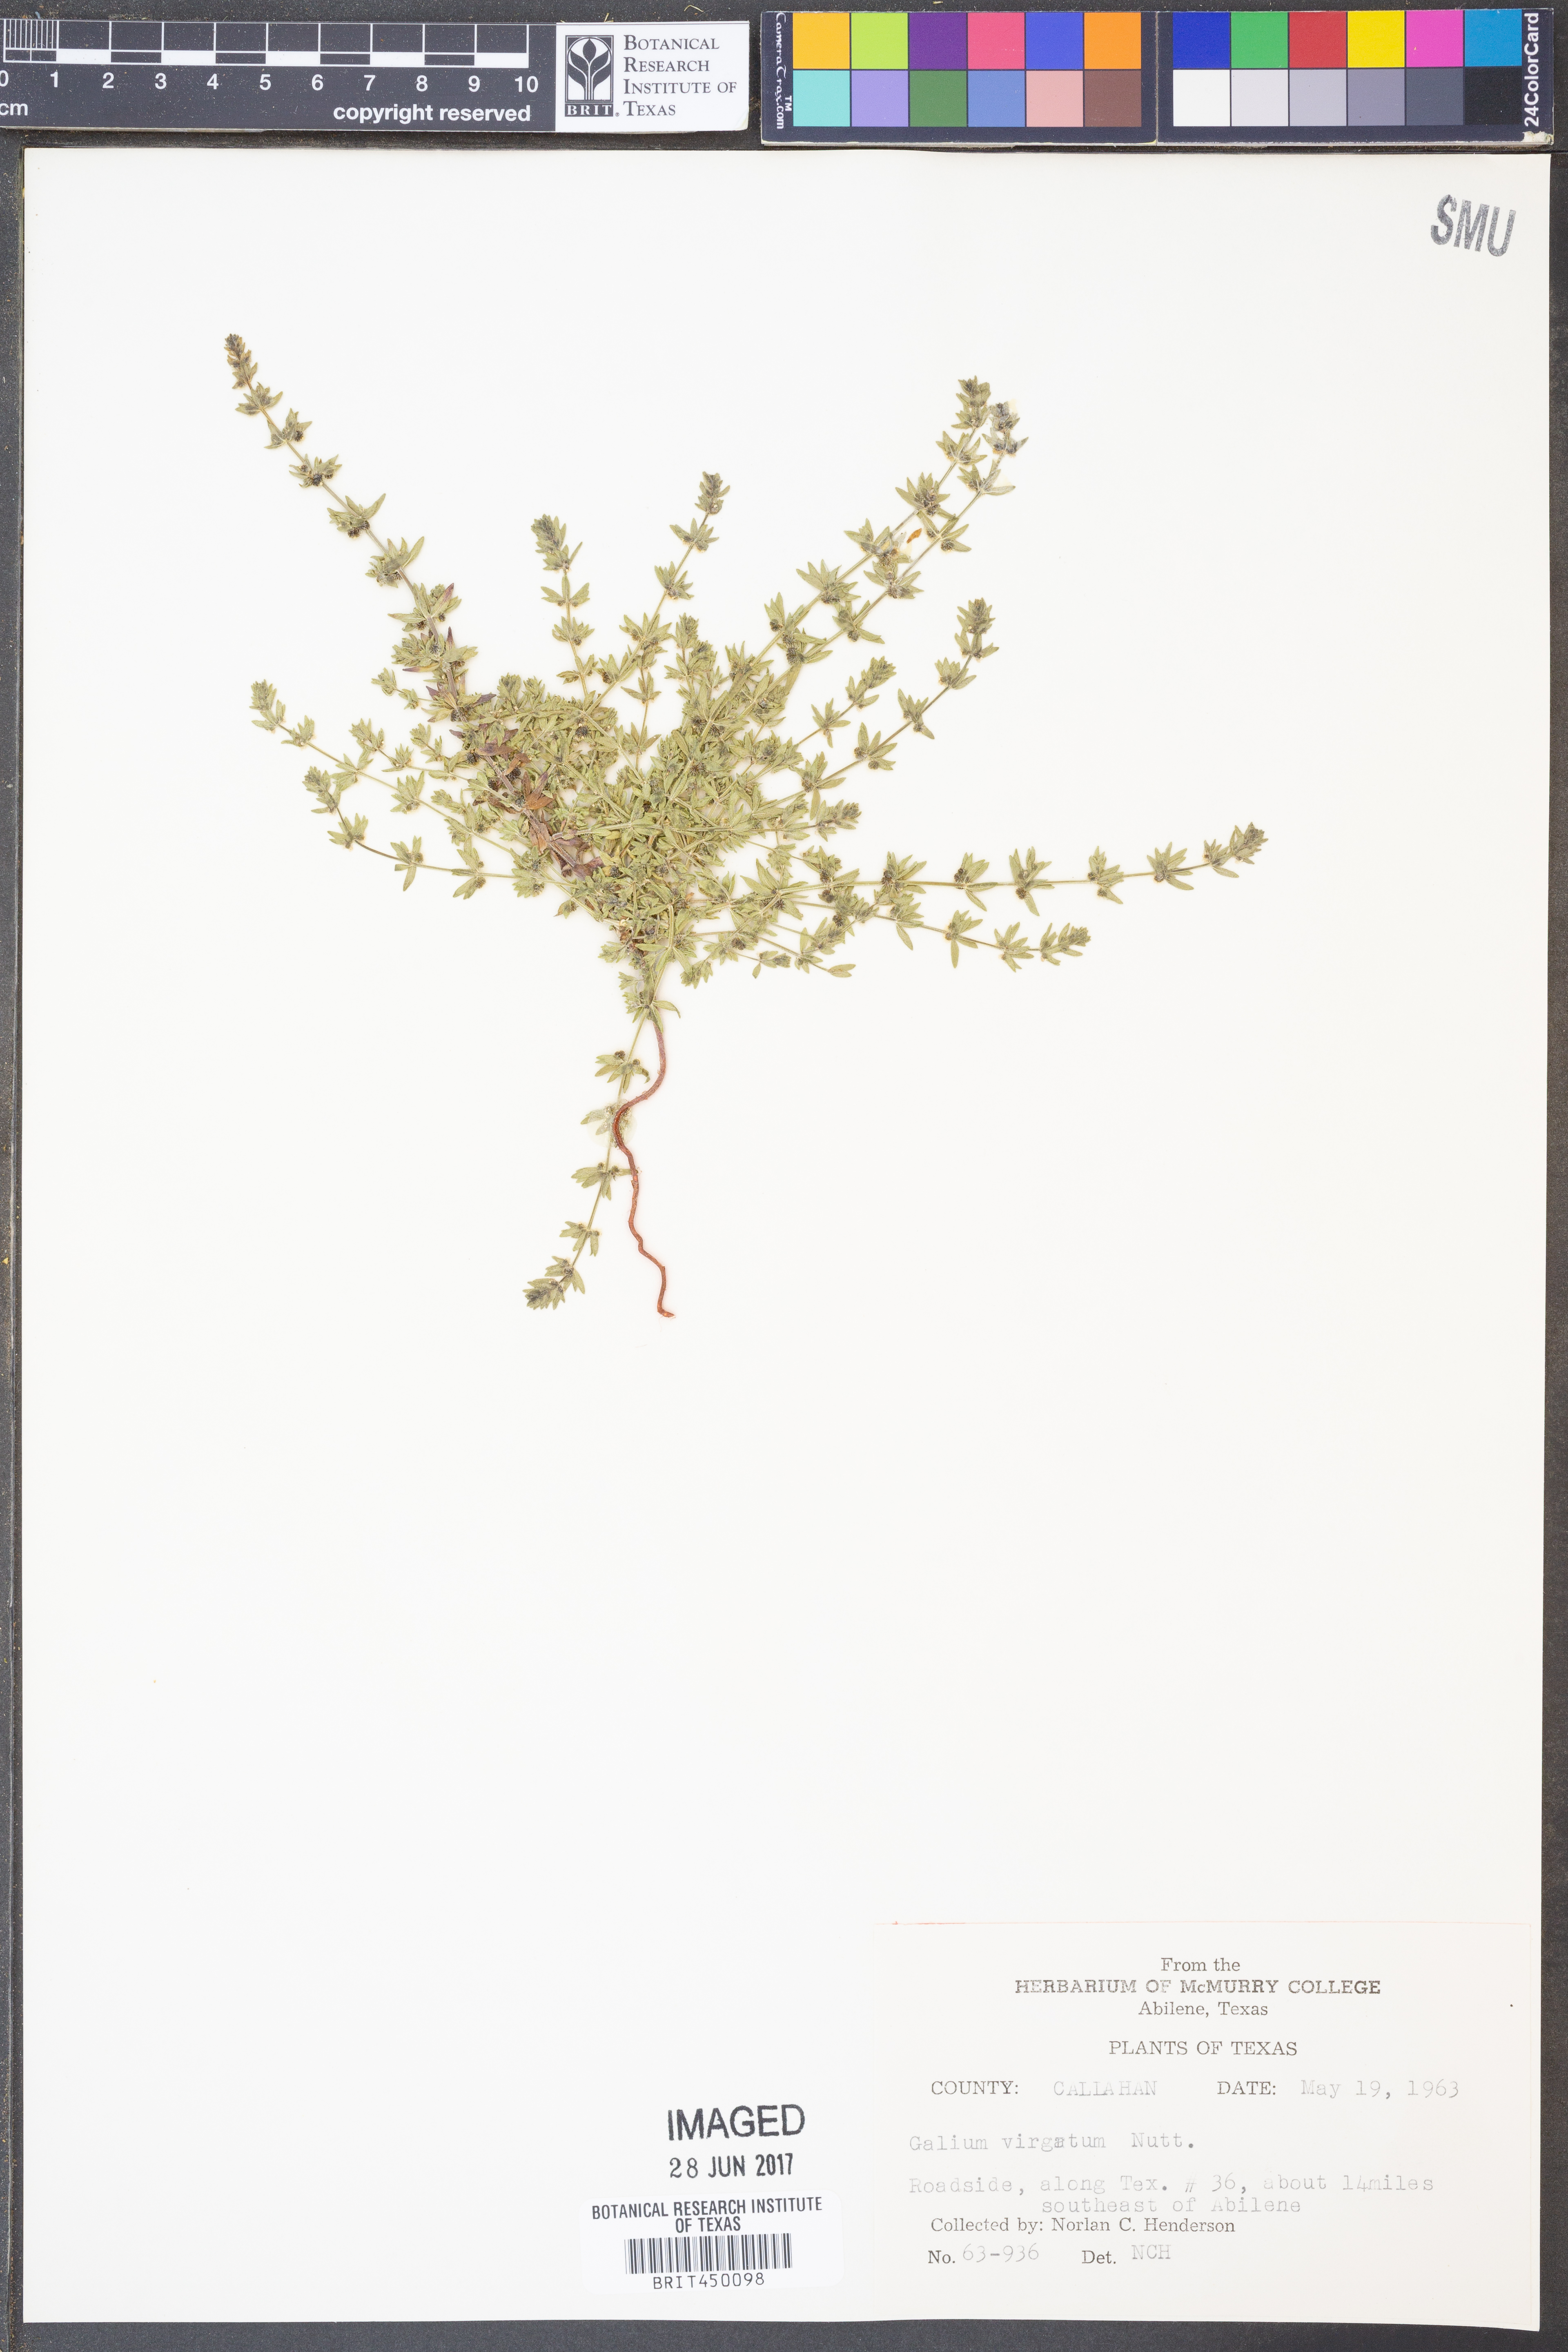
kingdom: Plantae
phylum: Tracheophyta
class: Magnoliopsida
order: Gentianales
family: Rubiaceae
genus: Galium
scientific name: Galium virgatum
